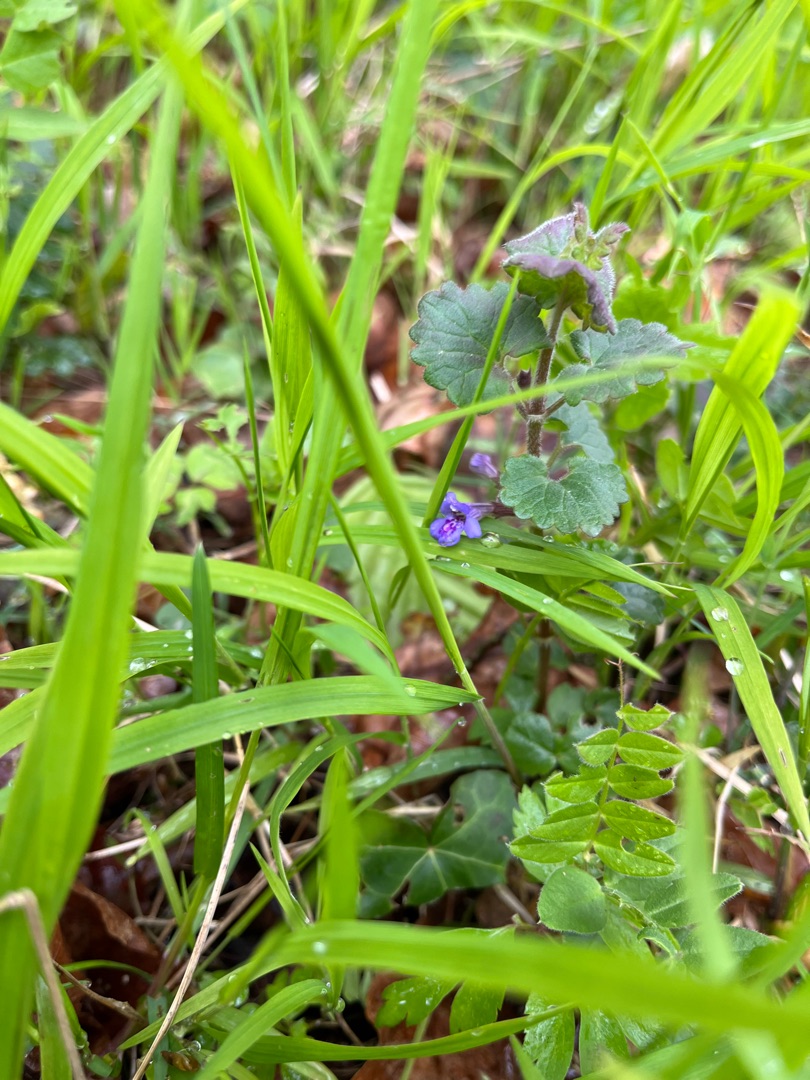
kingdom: Plantae
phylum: Tracheophyta
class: Magnoliopsida
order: Lamiales
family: Lamiaceae
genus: Glechoma
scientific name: Glechoma hederacea
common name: Korsknap
